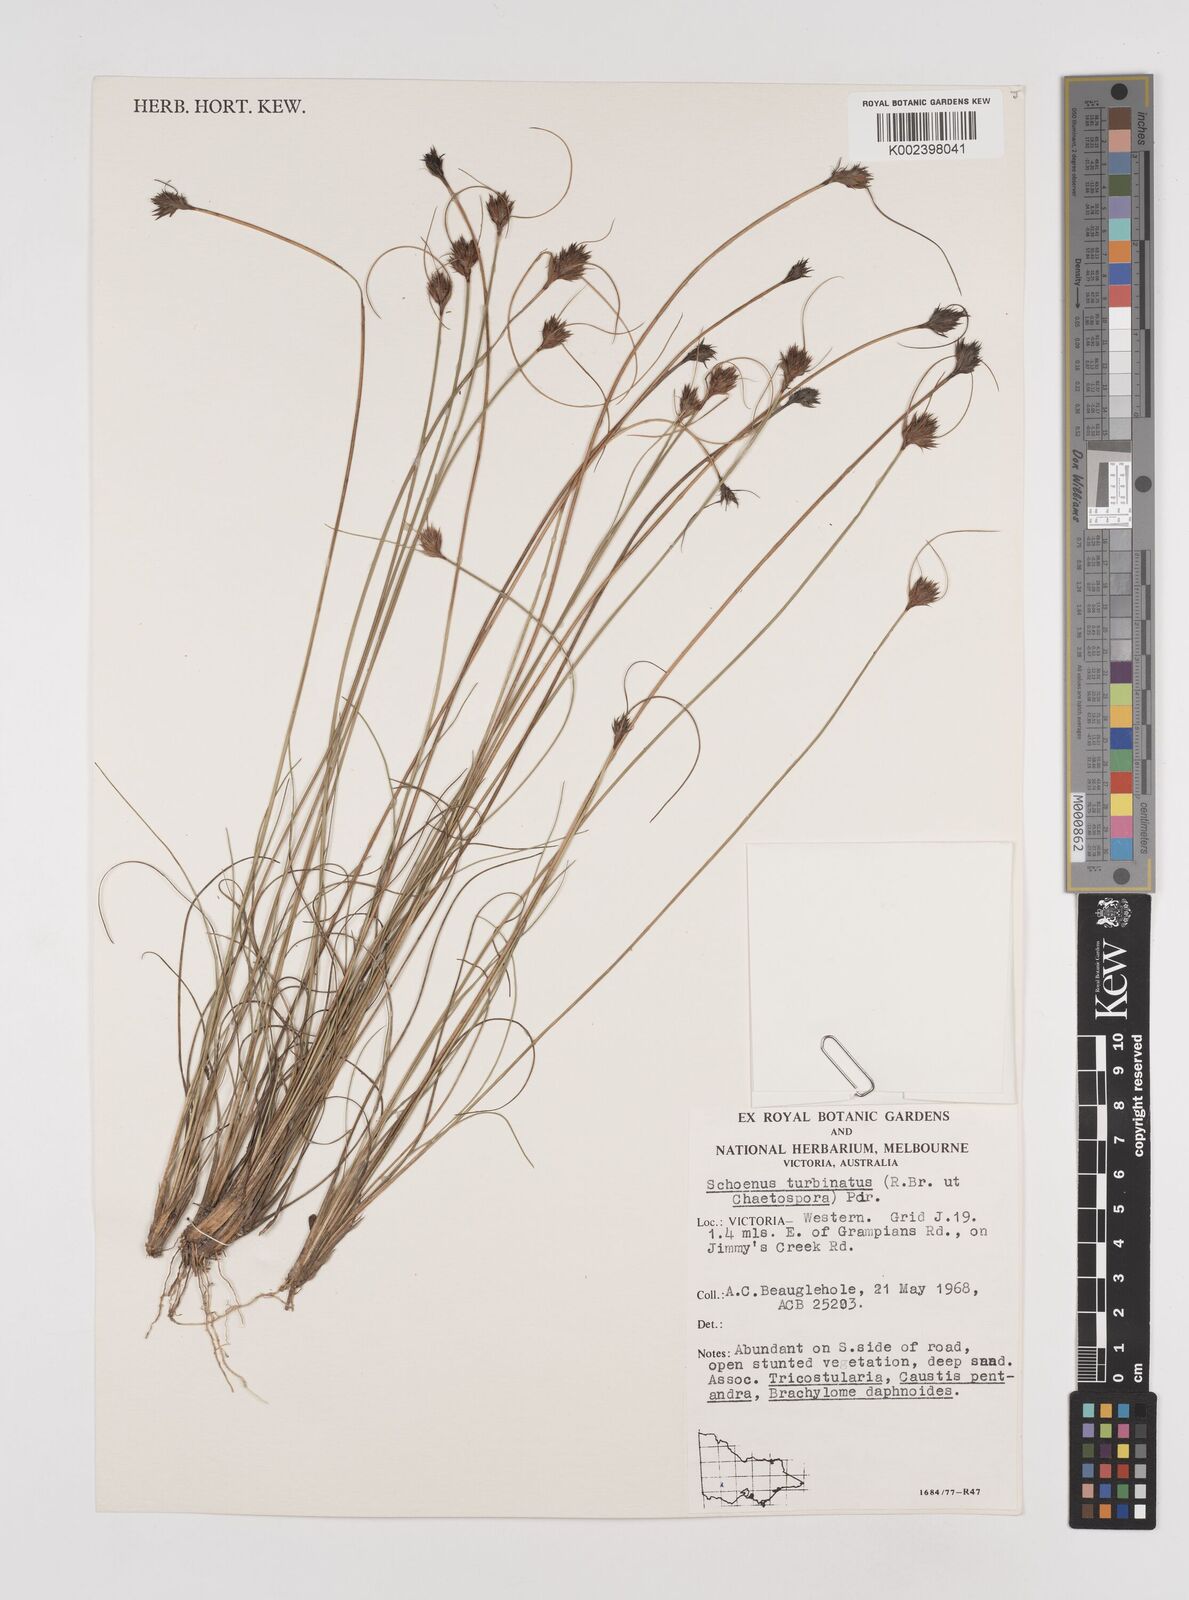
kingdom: Plantae
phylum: Tracheophyta
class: Liliopsida
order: Poales
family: Cyperaceae
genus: Schoenus
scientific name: Schoenus turbinatus
